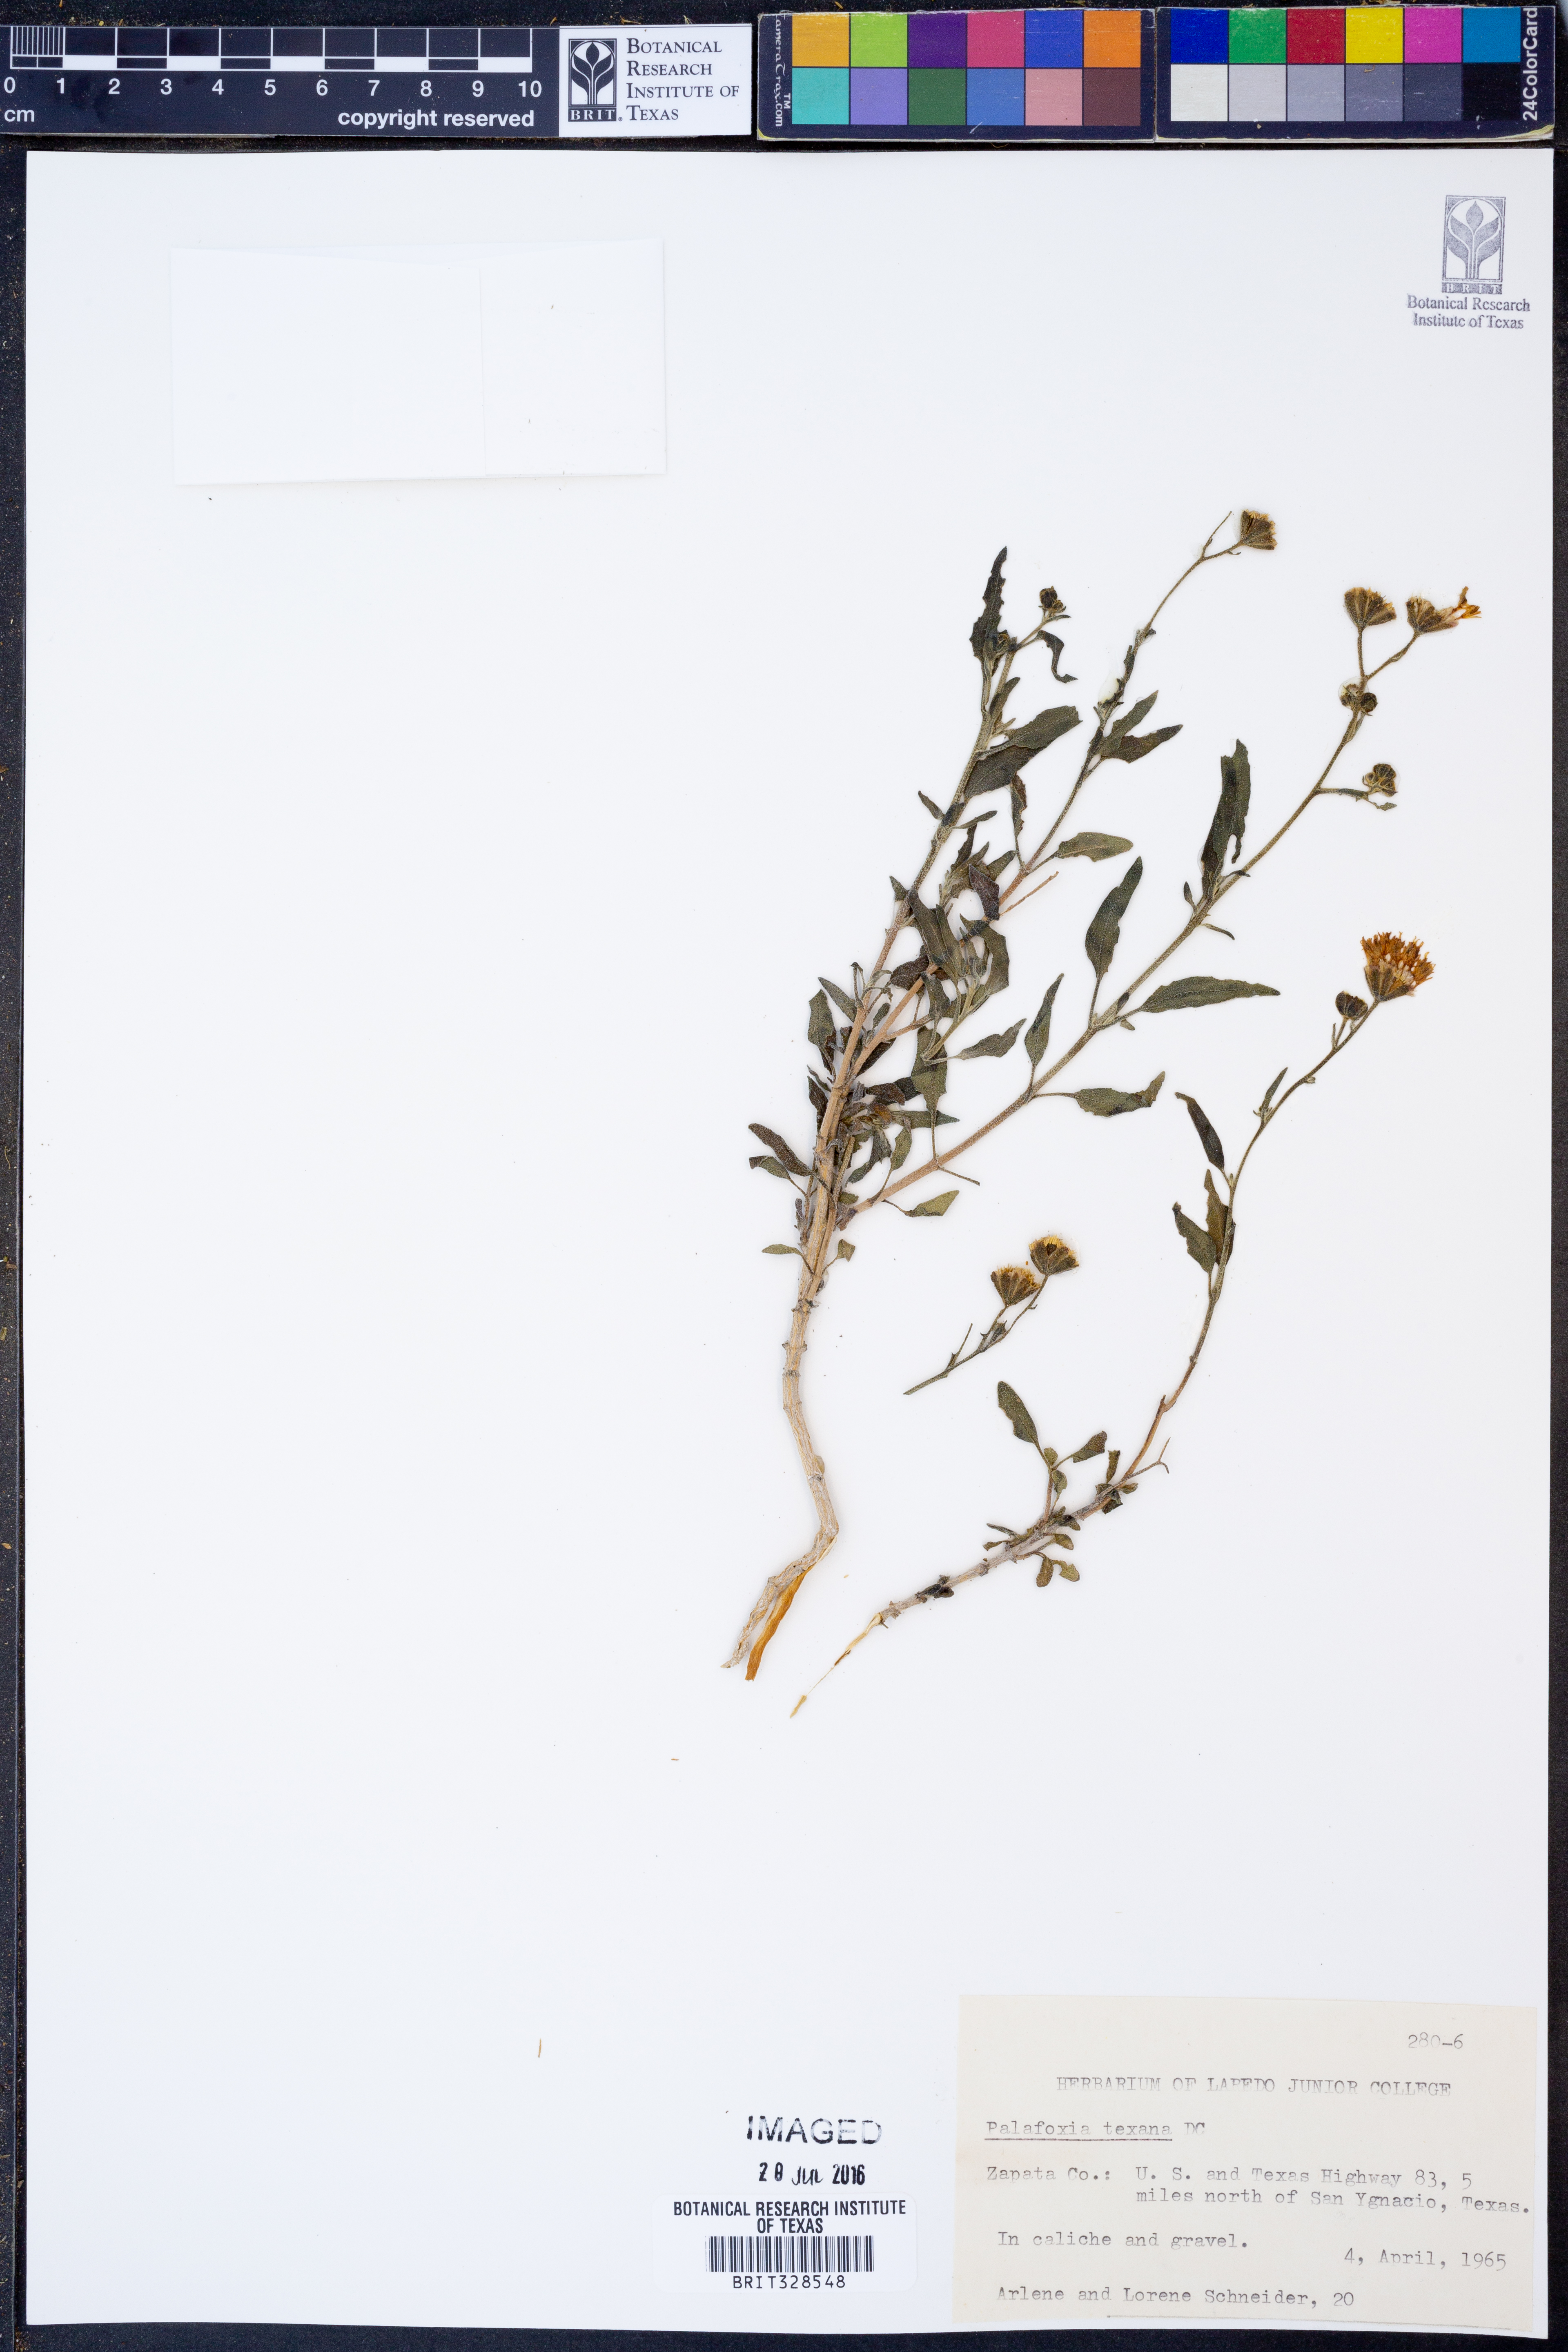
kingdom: Plantae
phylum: Tracheophyta
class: Magnoliopsida
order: Asterales
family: Asteraceae
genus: Palafoxia
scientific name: Palafoxia texana
